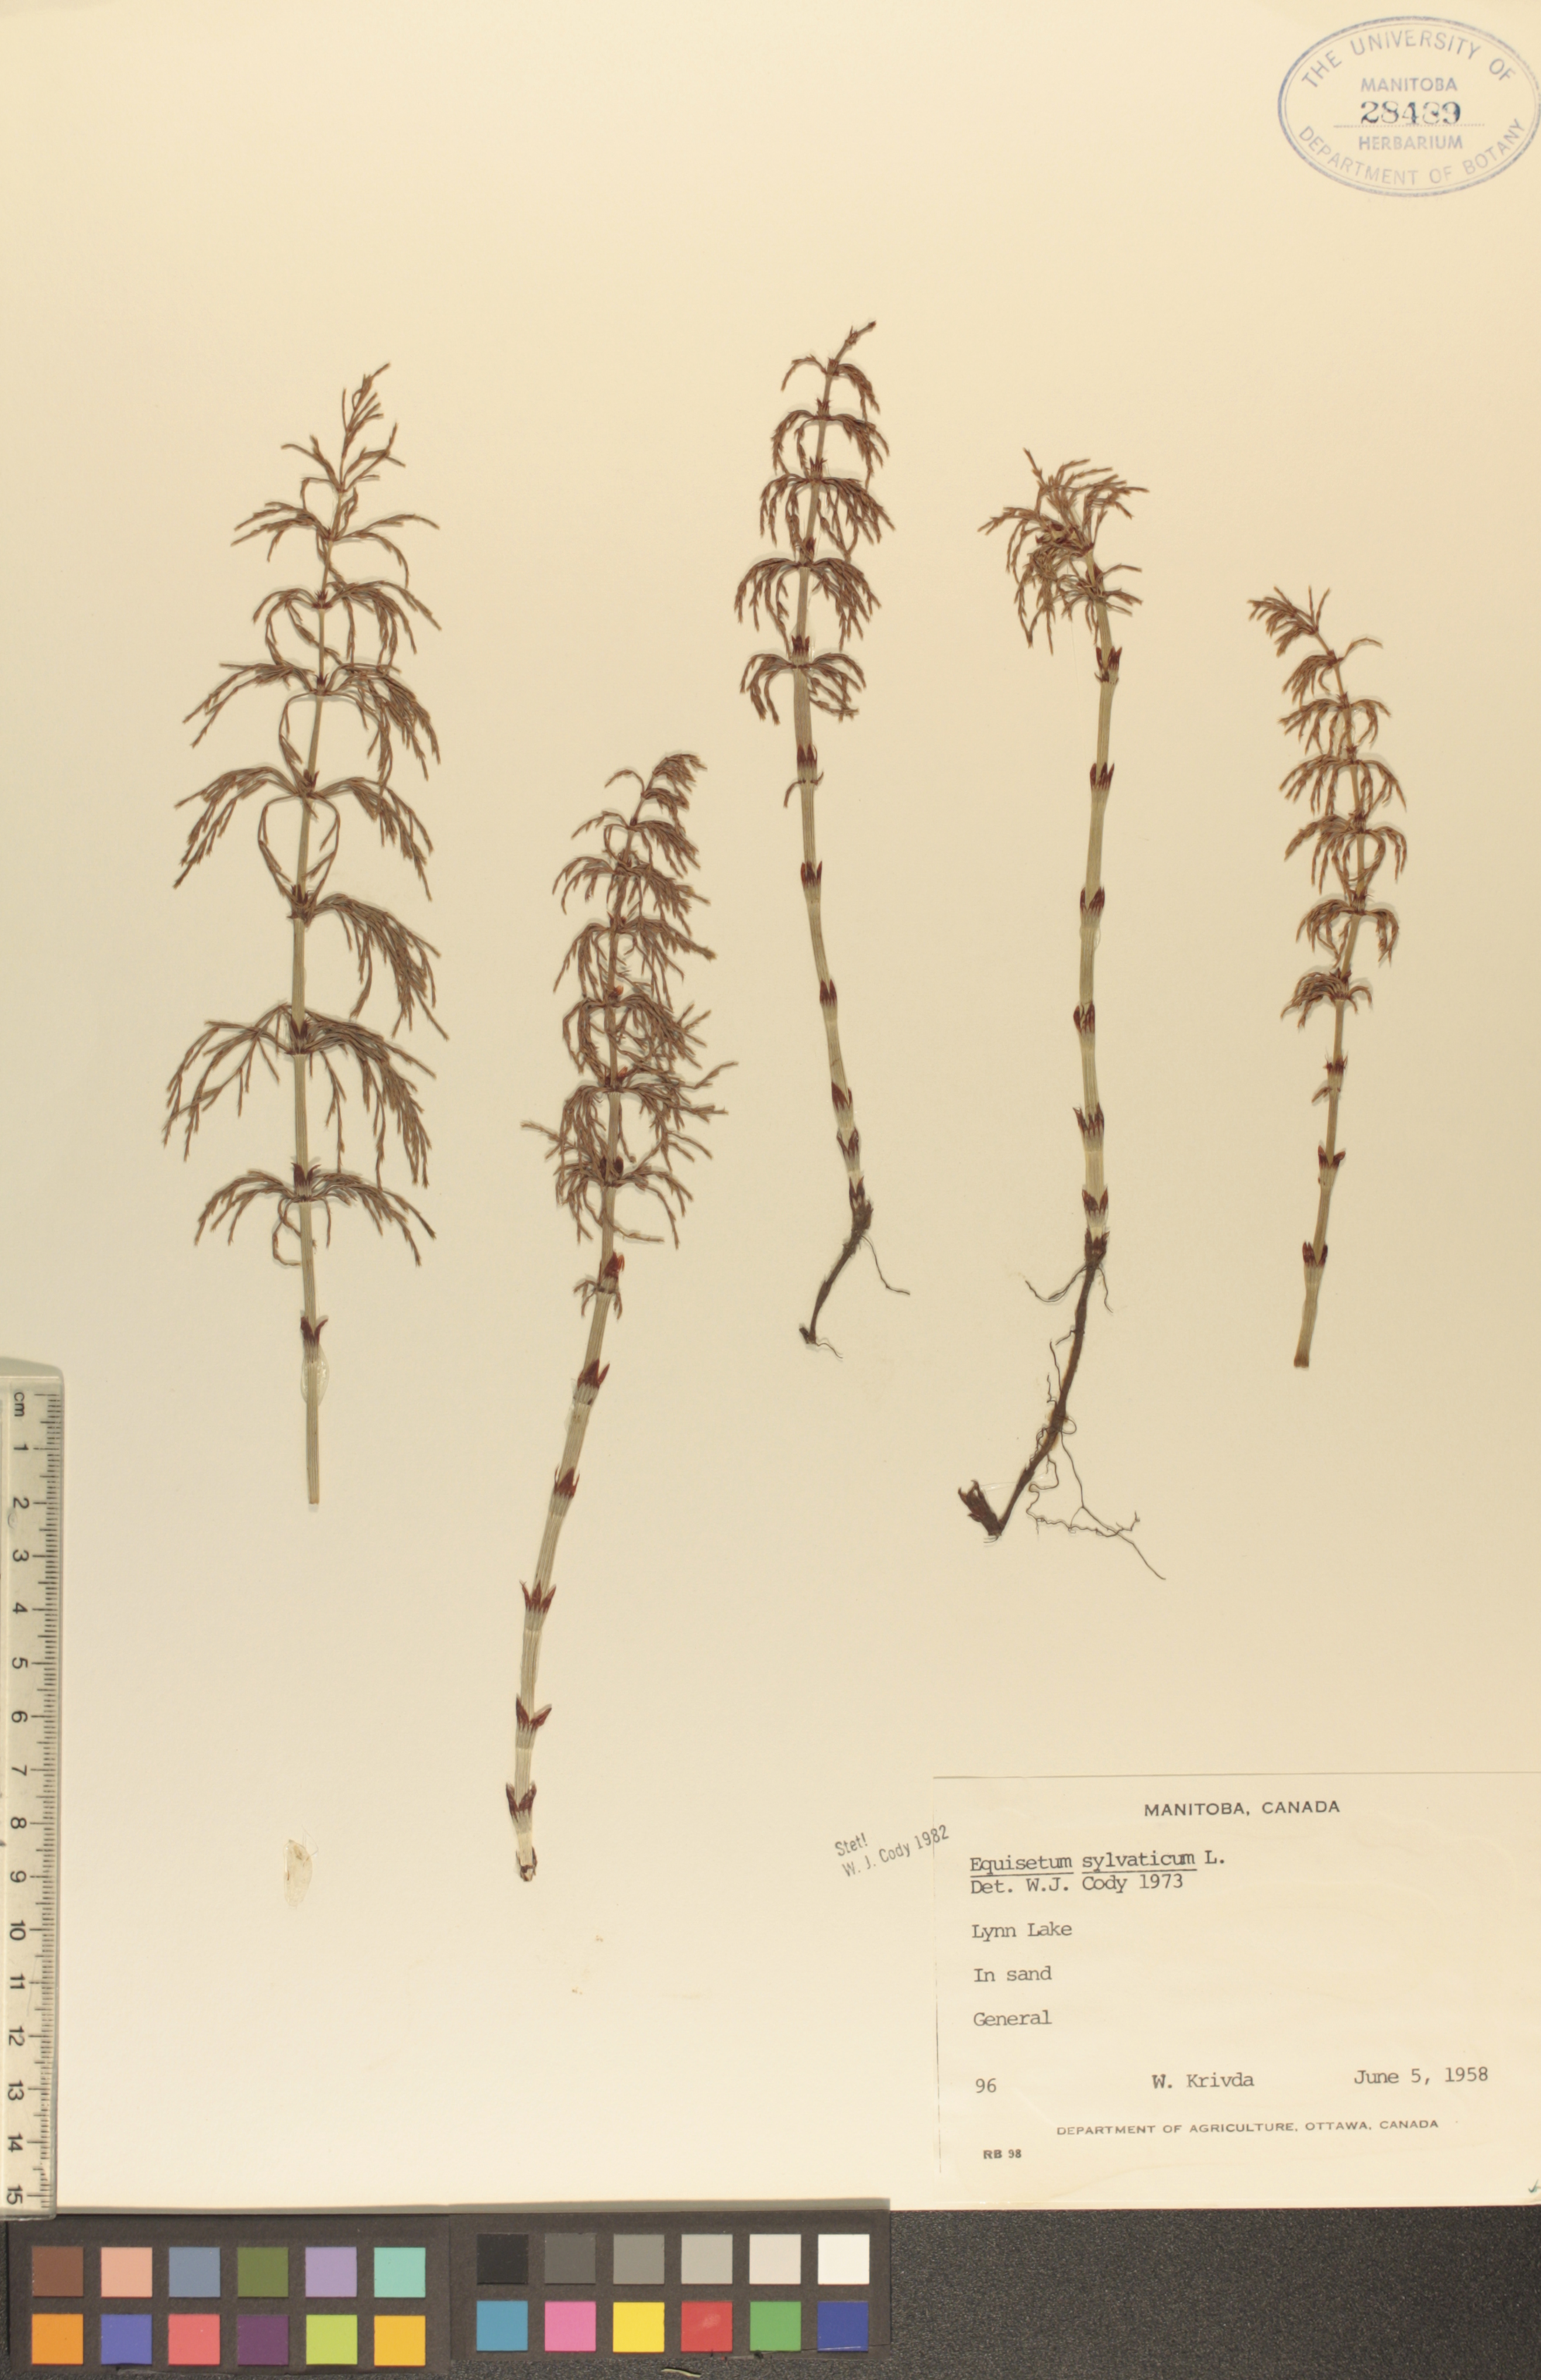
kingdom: Plantae
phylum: Tracheophyta
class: Polypodiopsida
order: Equisetales
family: Equisetaceae
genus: Equisetum
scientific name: Equisetum sylvaticum
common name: Wood horsetail
